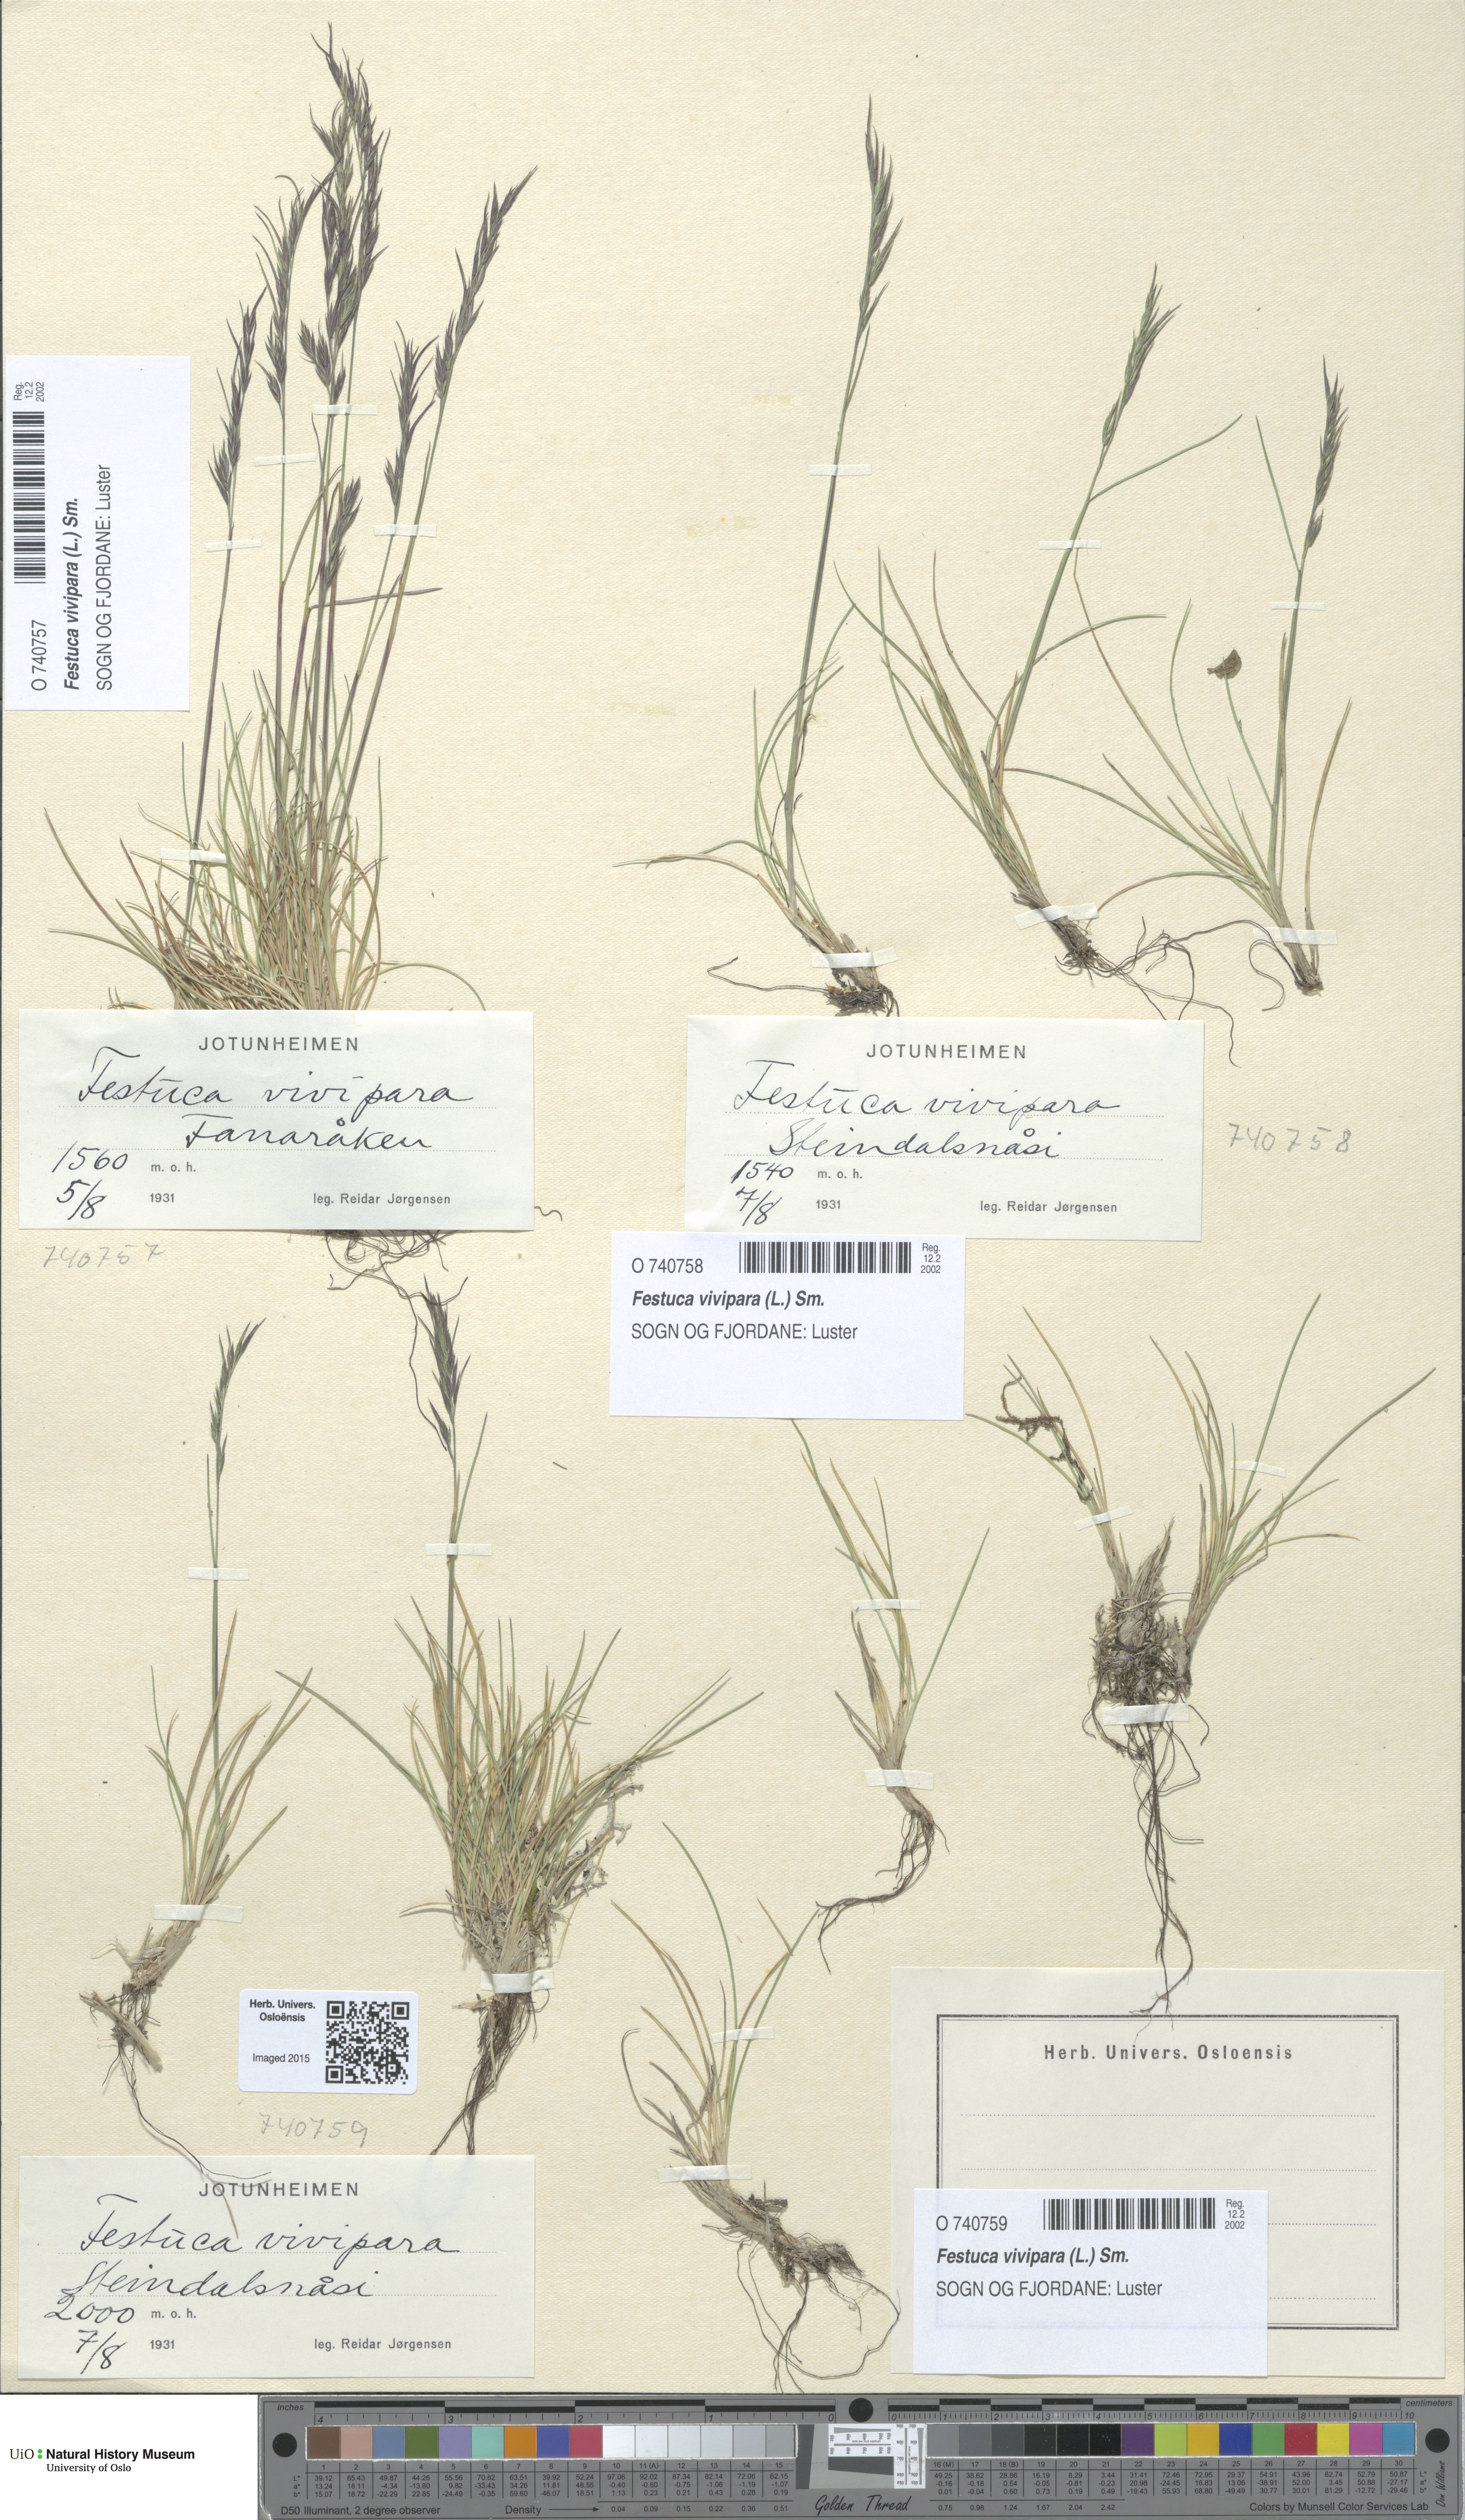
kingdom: Plantae
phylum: Tracheophyta
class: Liliopsida
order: Poales
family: Poaceae
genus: Festuca
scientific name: Festuca vivipara
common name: Viviparous sheep's-fescue
